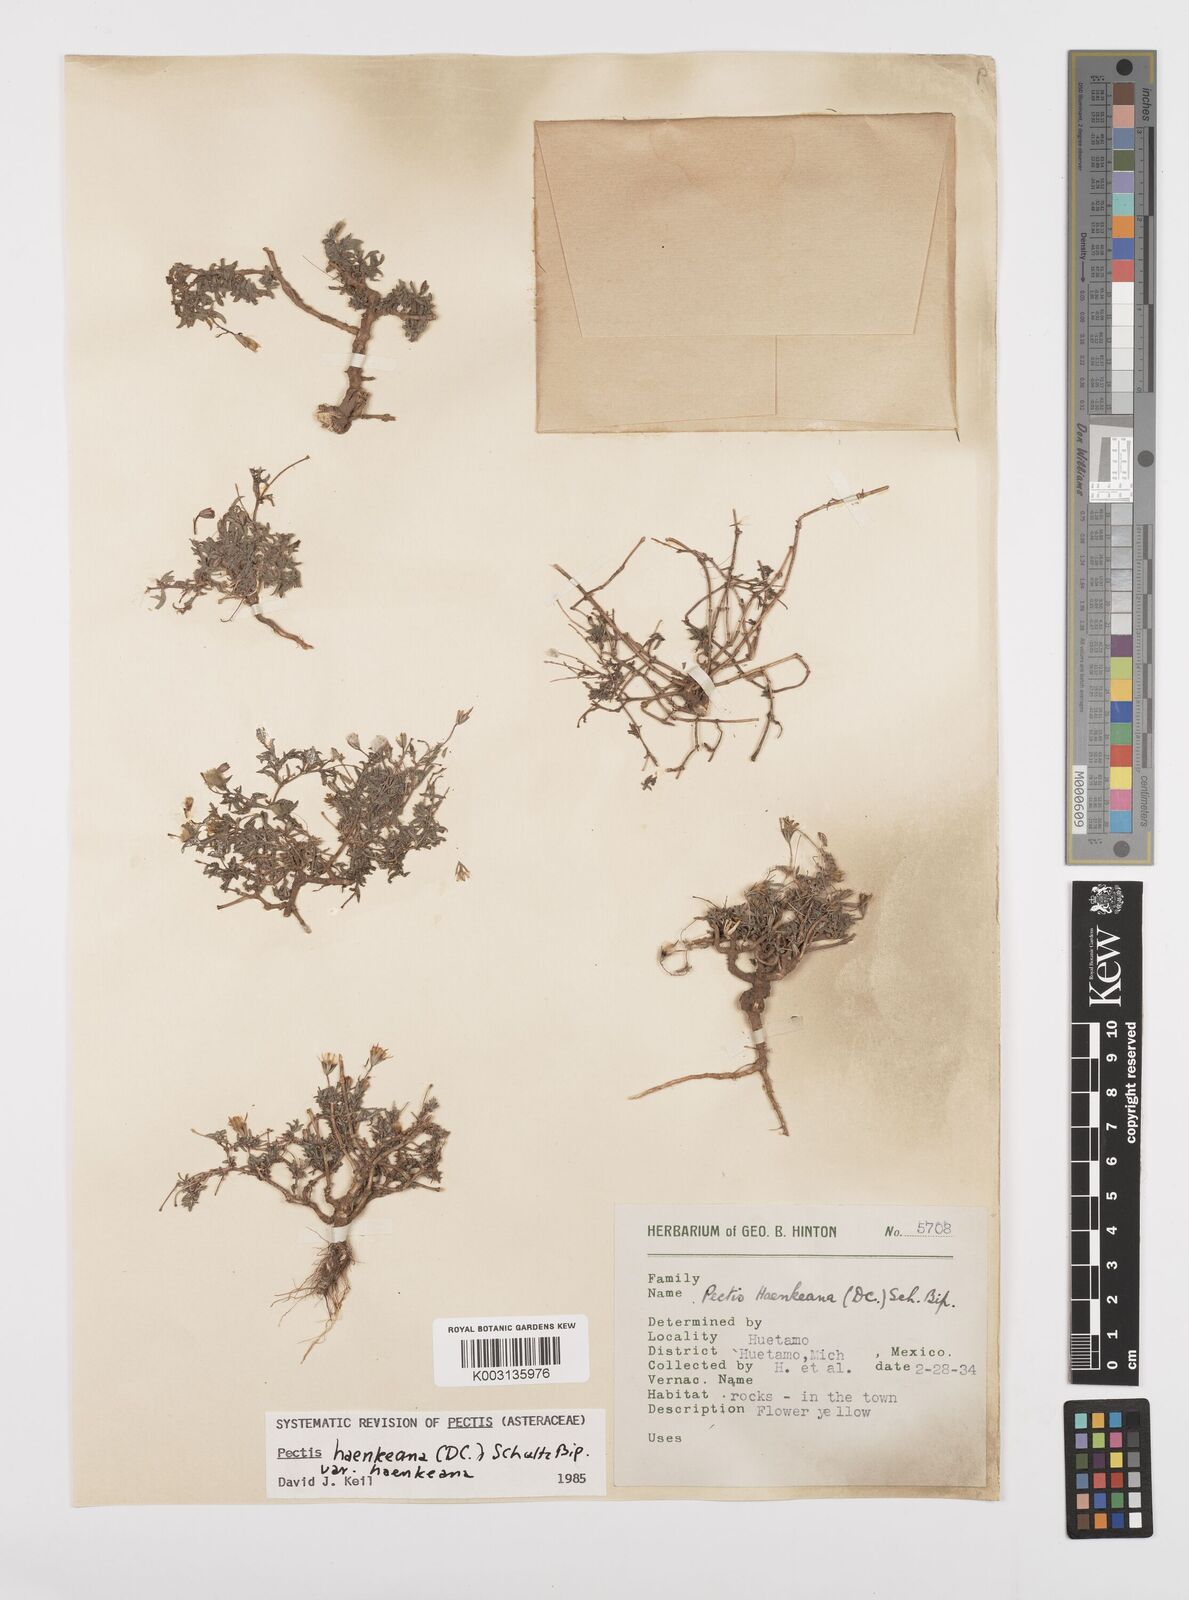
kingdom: Plantae
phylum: Tracheophyta
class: Magnoliopsida
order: Asterales
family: Asteraceae
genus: Pectis
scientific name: Pectis haenkeana
